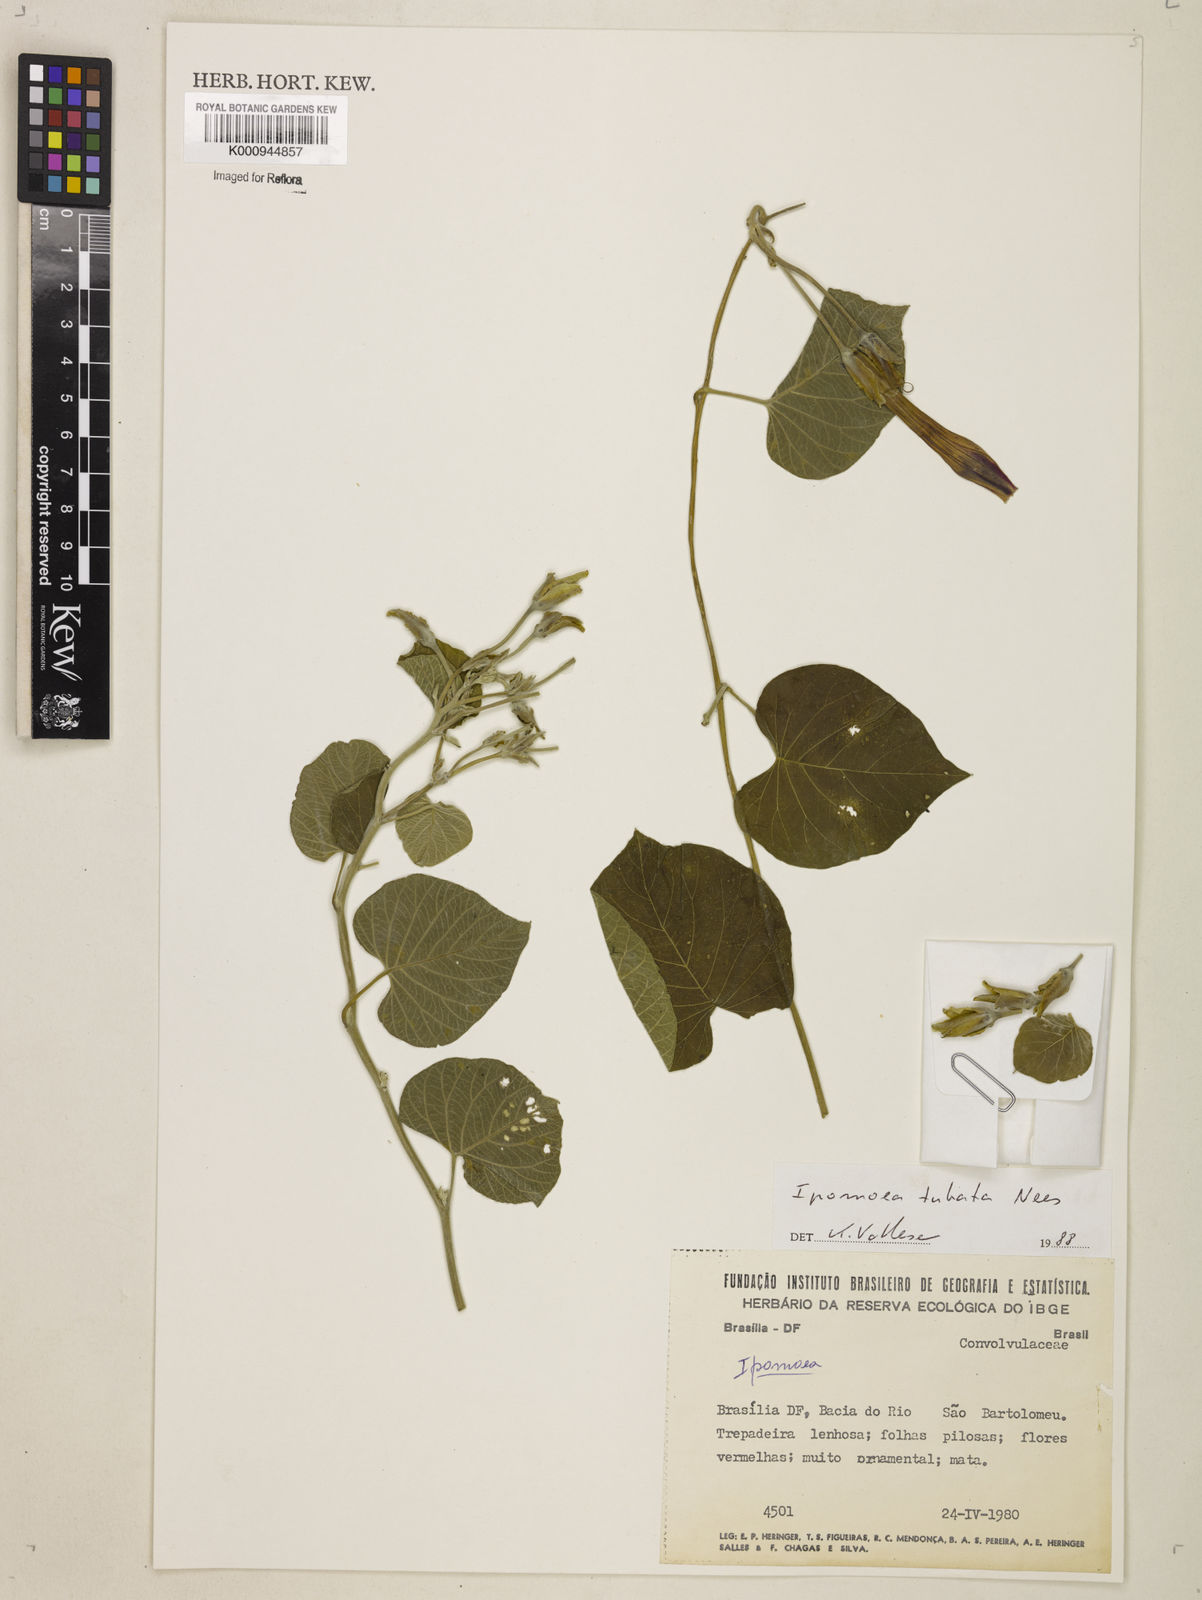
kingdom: Plantae
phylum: Tracheophyta
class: Magnoliopsida
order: Solanales
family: Convolvulaceae
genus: Ipomoea
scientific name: Ipomoea sidifolia
